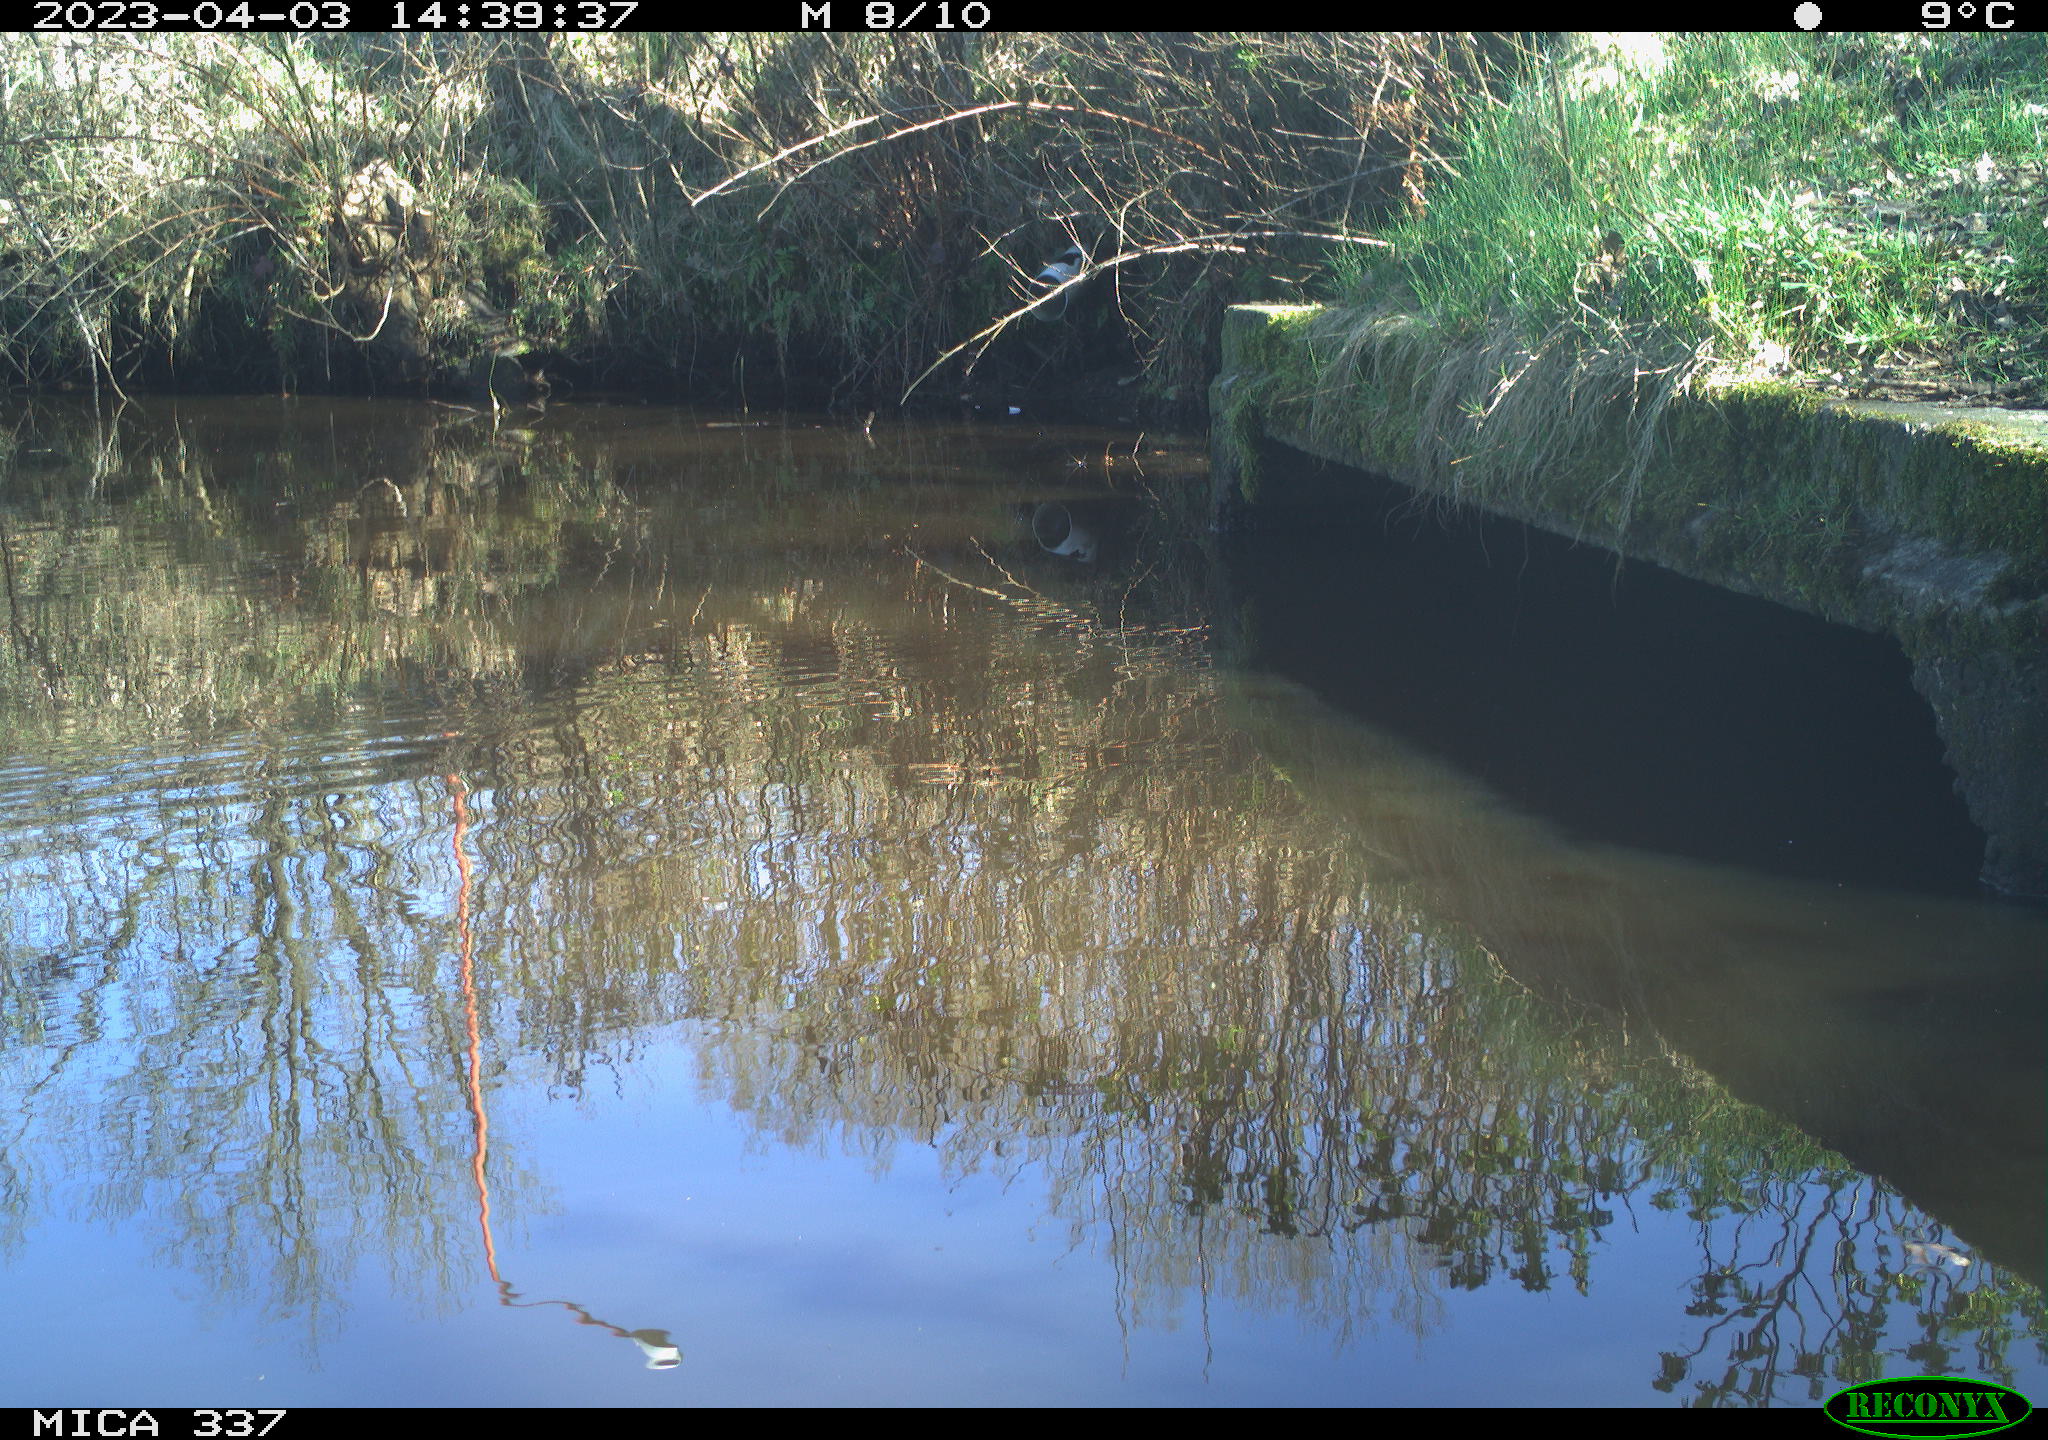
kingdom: Animalia
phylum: Chordata
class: Aves
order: Anseriformes
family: Anatidae
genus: Anas
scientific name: Anas platyrhynchos
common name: Mallard
